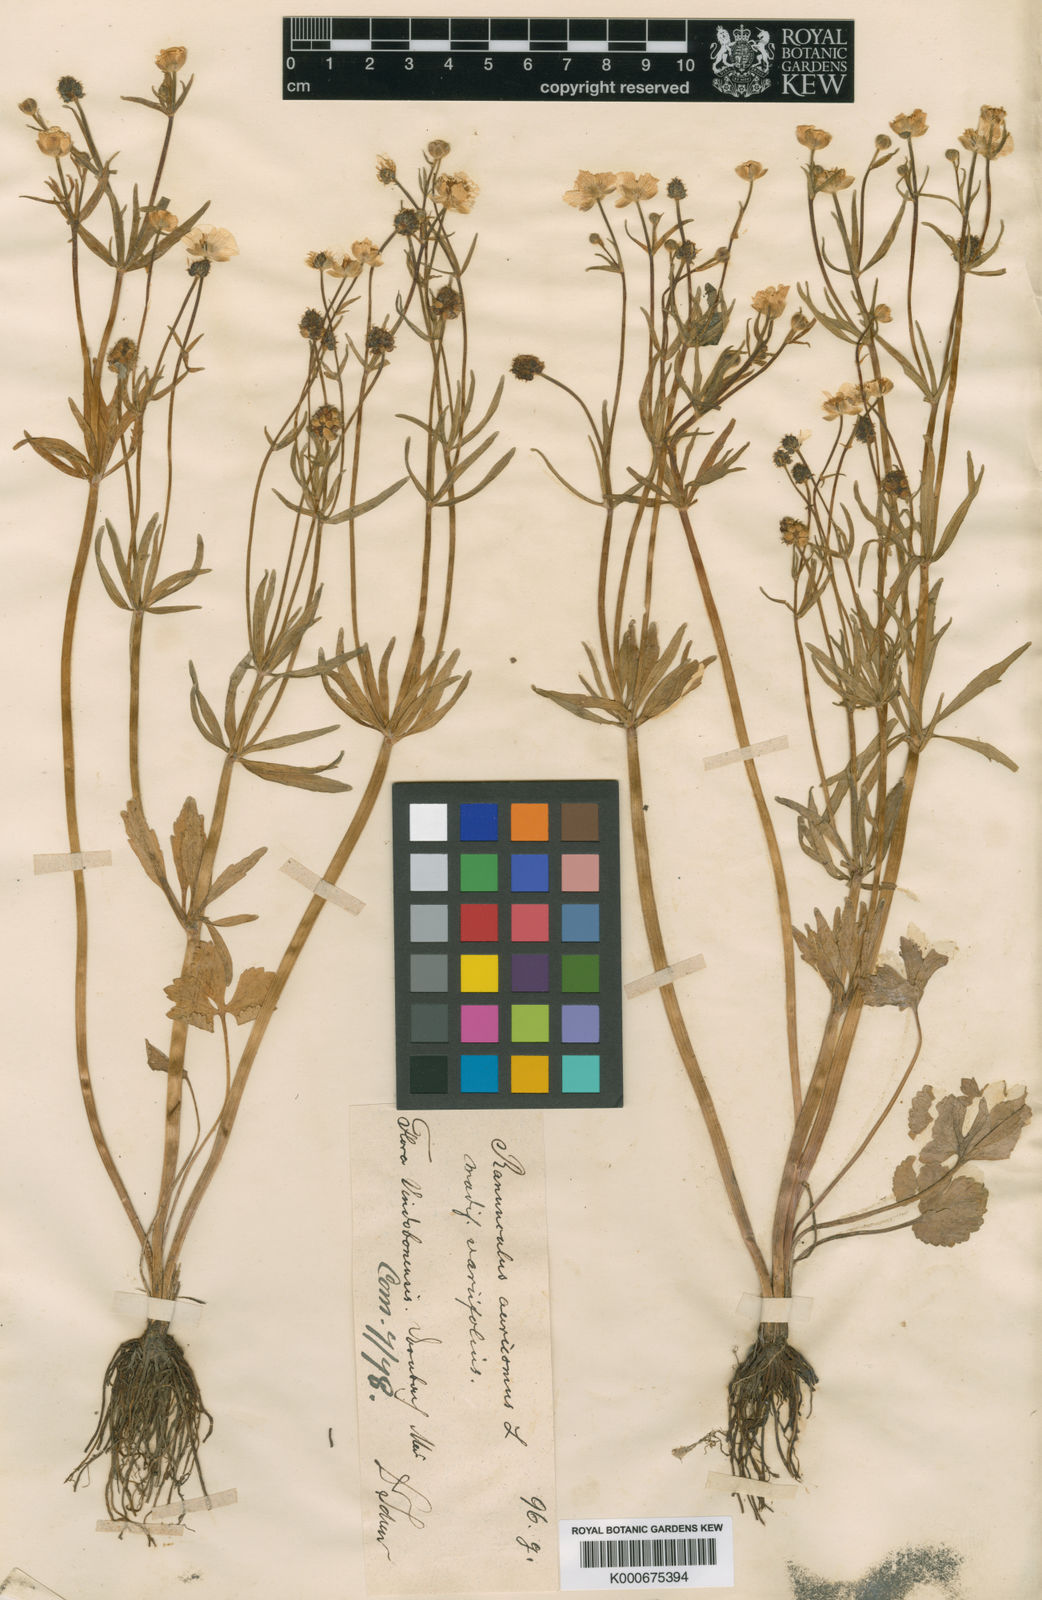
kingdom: Plantae
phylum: Tracheophyta
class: Magnoliopsida
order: Ranunculales
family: Ranunculaceae
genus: Ranunculus
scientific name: Ranunculus auricomus
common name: Goldilocks buttercup
